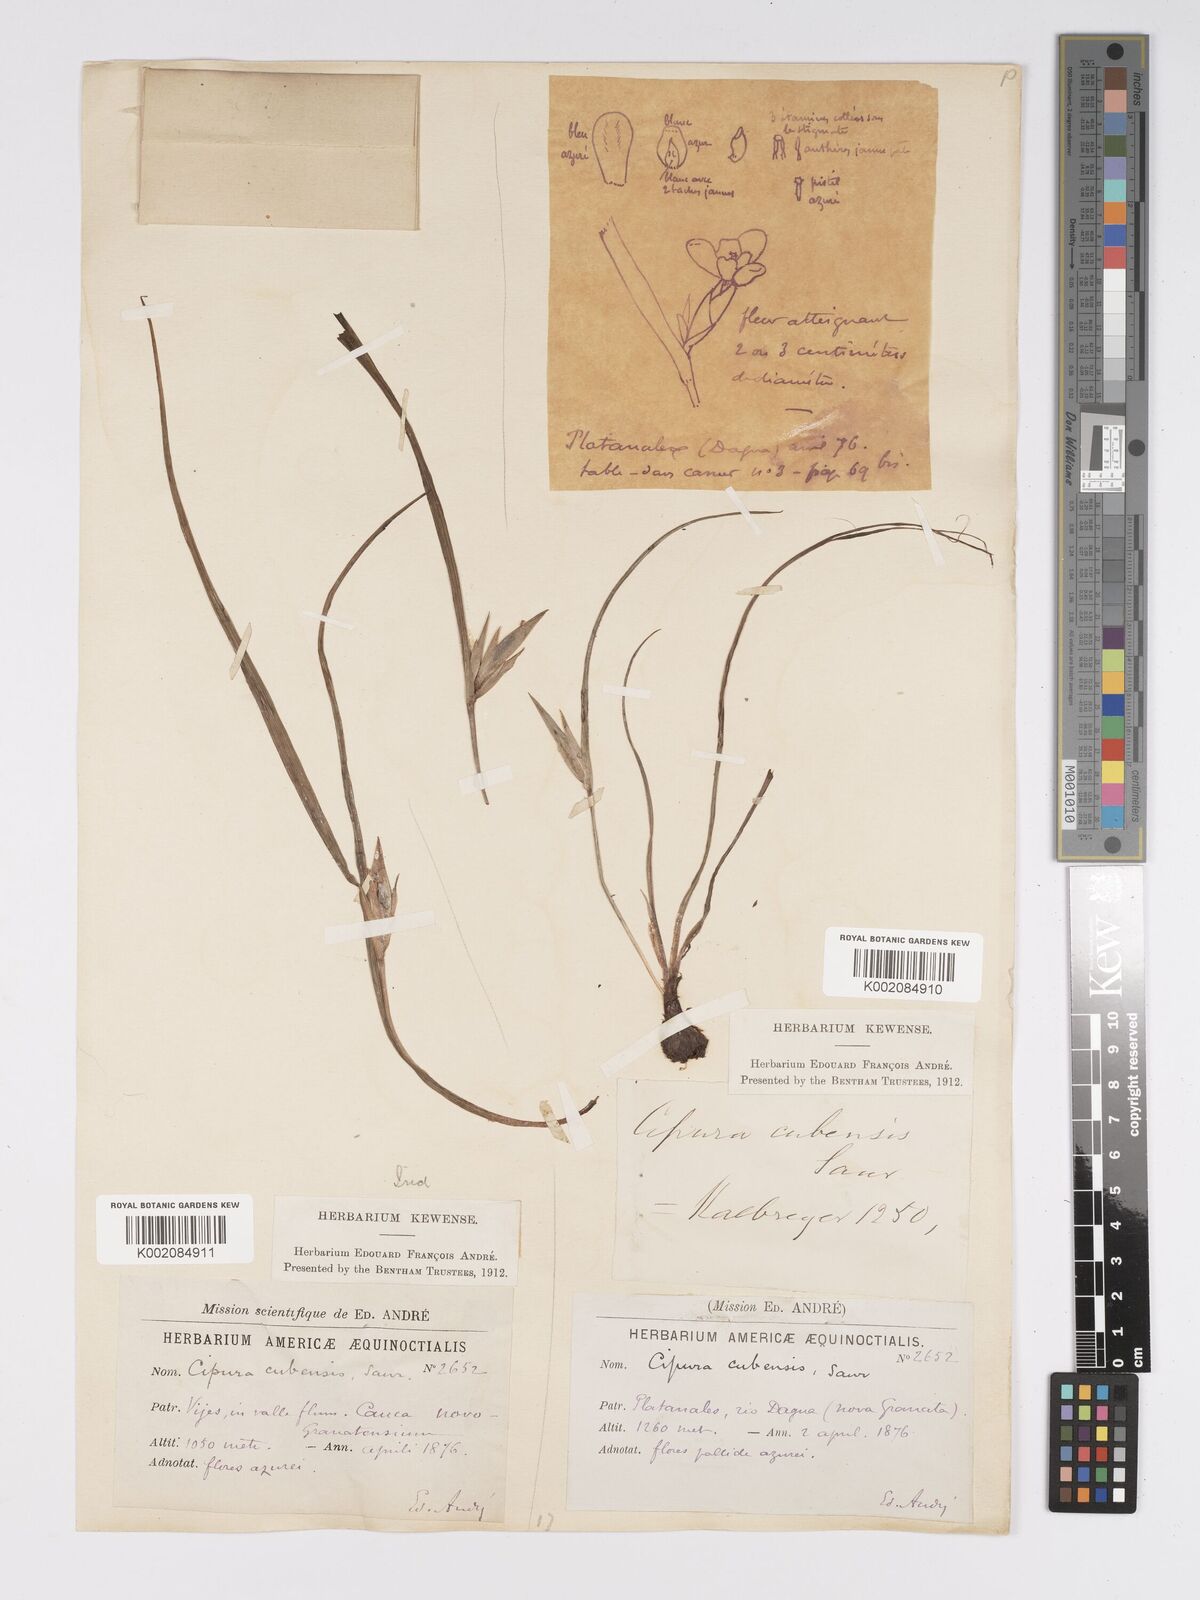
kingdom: Plantae
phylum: Tracheophyta
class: Liliopsida
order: Asparagales
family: Iridaceae
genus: Cipura
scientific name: Cipura
